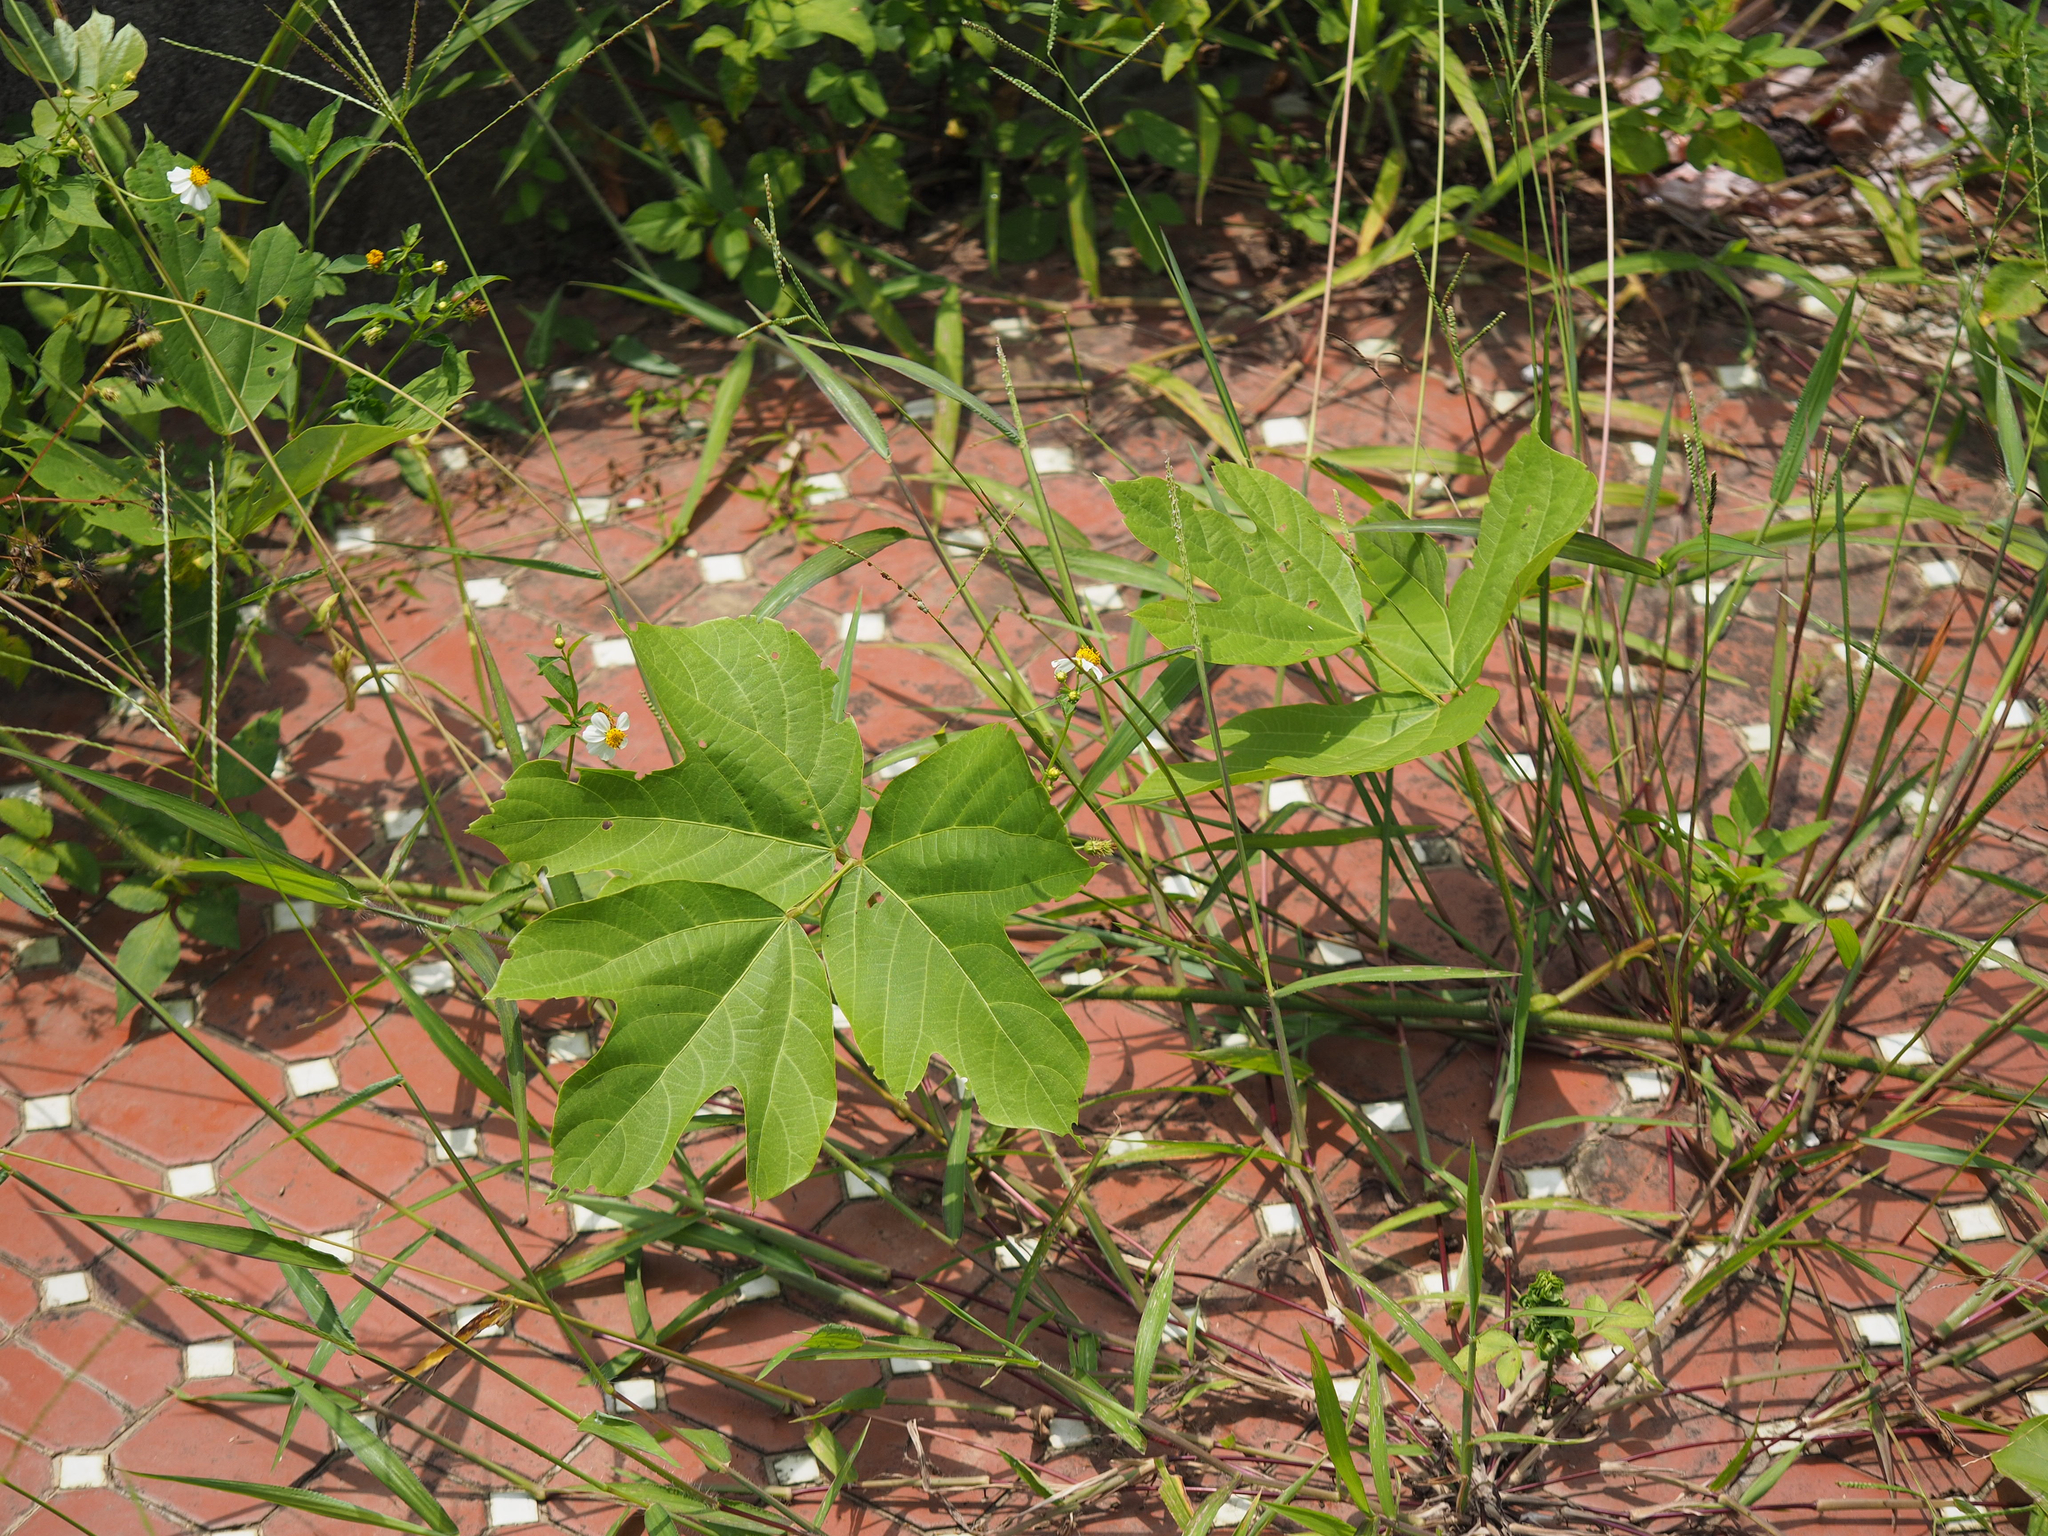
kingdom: Plantae
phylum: Tracheophyta
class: Magnoliopsida
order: Fabales
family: Fabaceae
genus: Pueraria
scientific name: Pueraria montana
